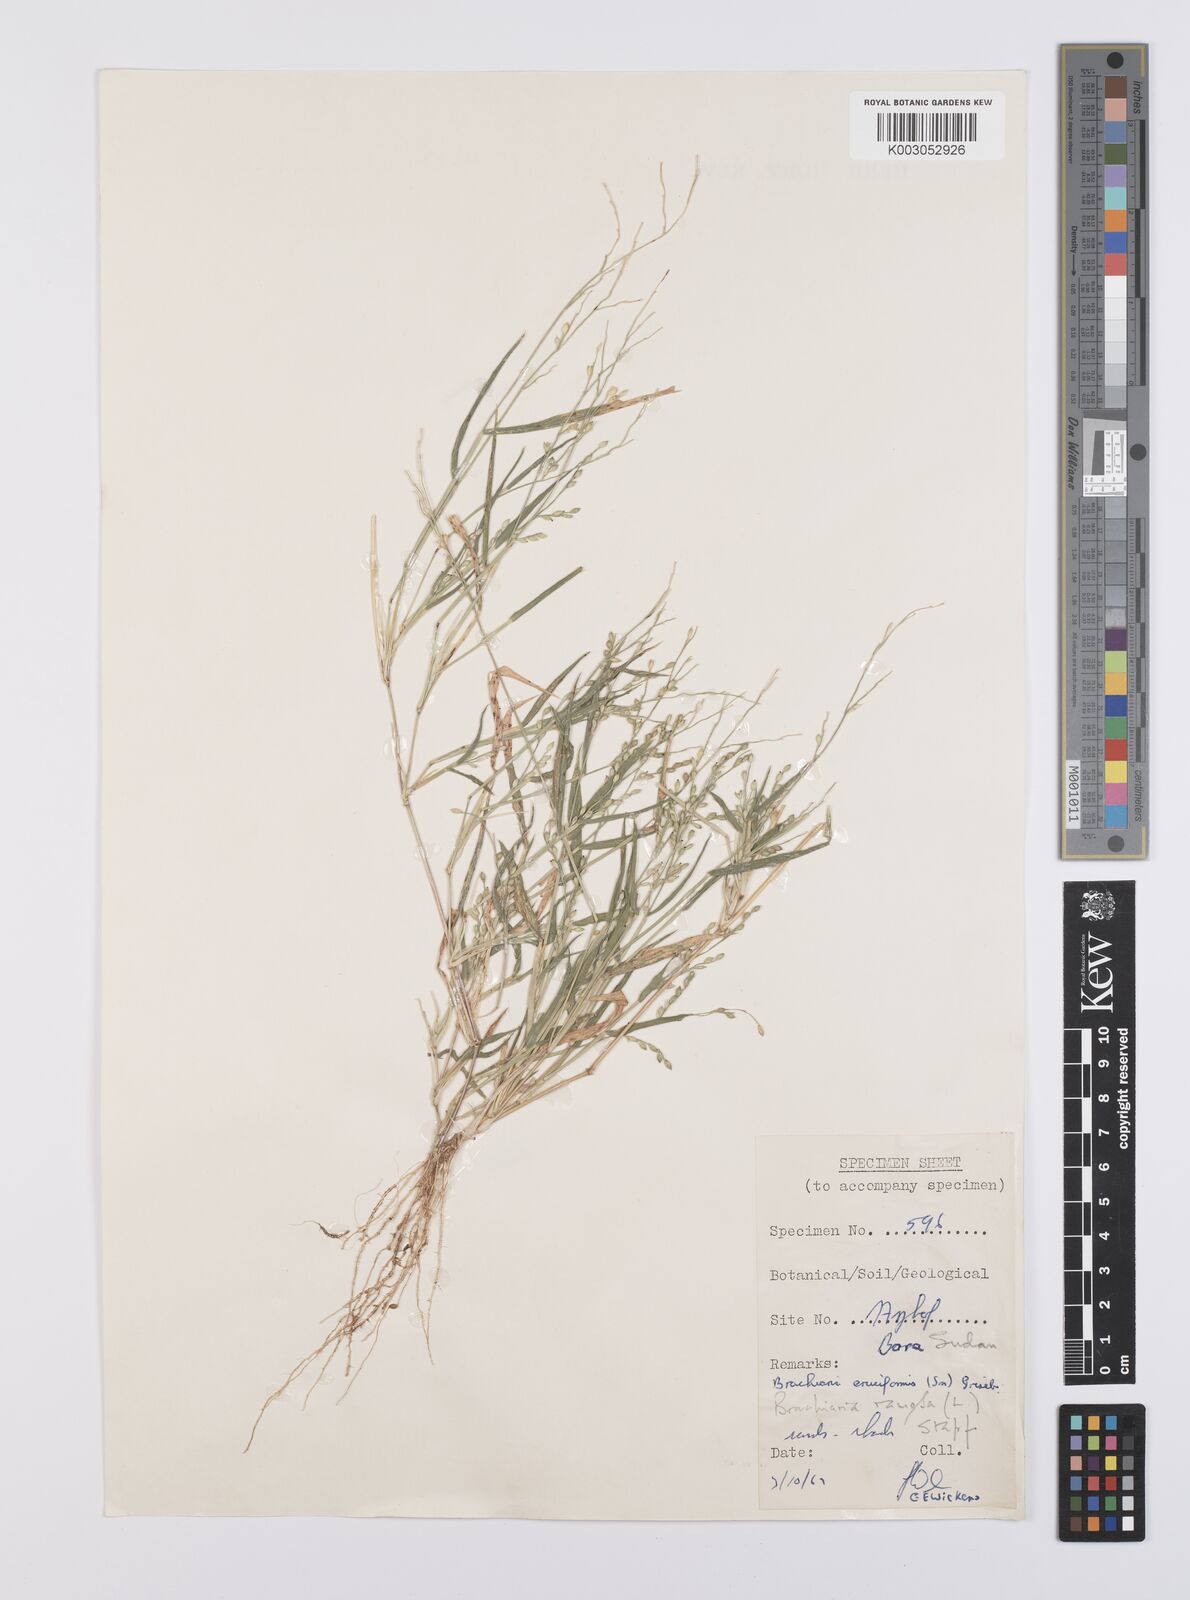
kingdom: Plantae
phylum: Tracheophyta
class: Liliopsida
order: Poales
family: Poaceae
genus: Urochloa
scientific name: Urochloa ramosa
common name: Browntop millet
